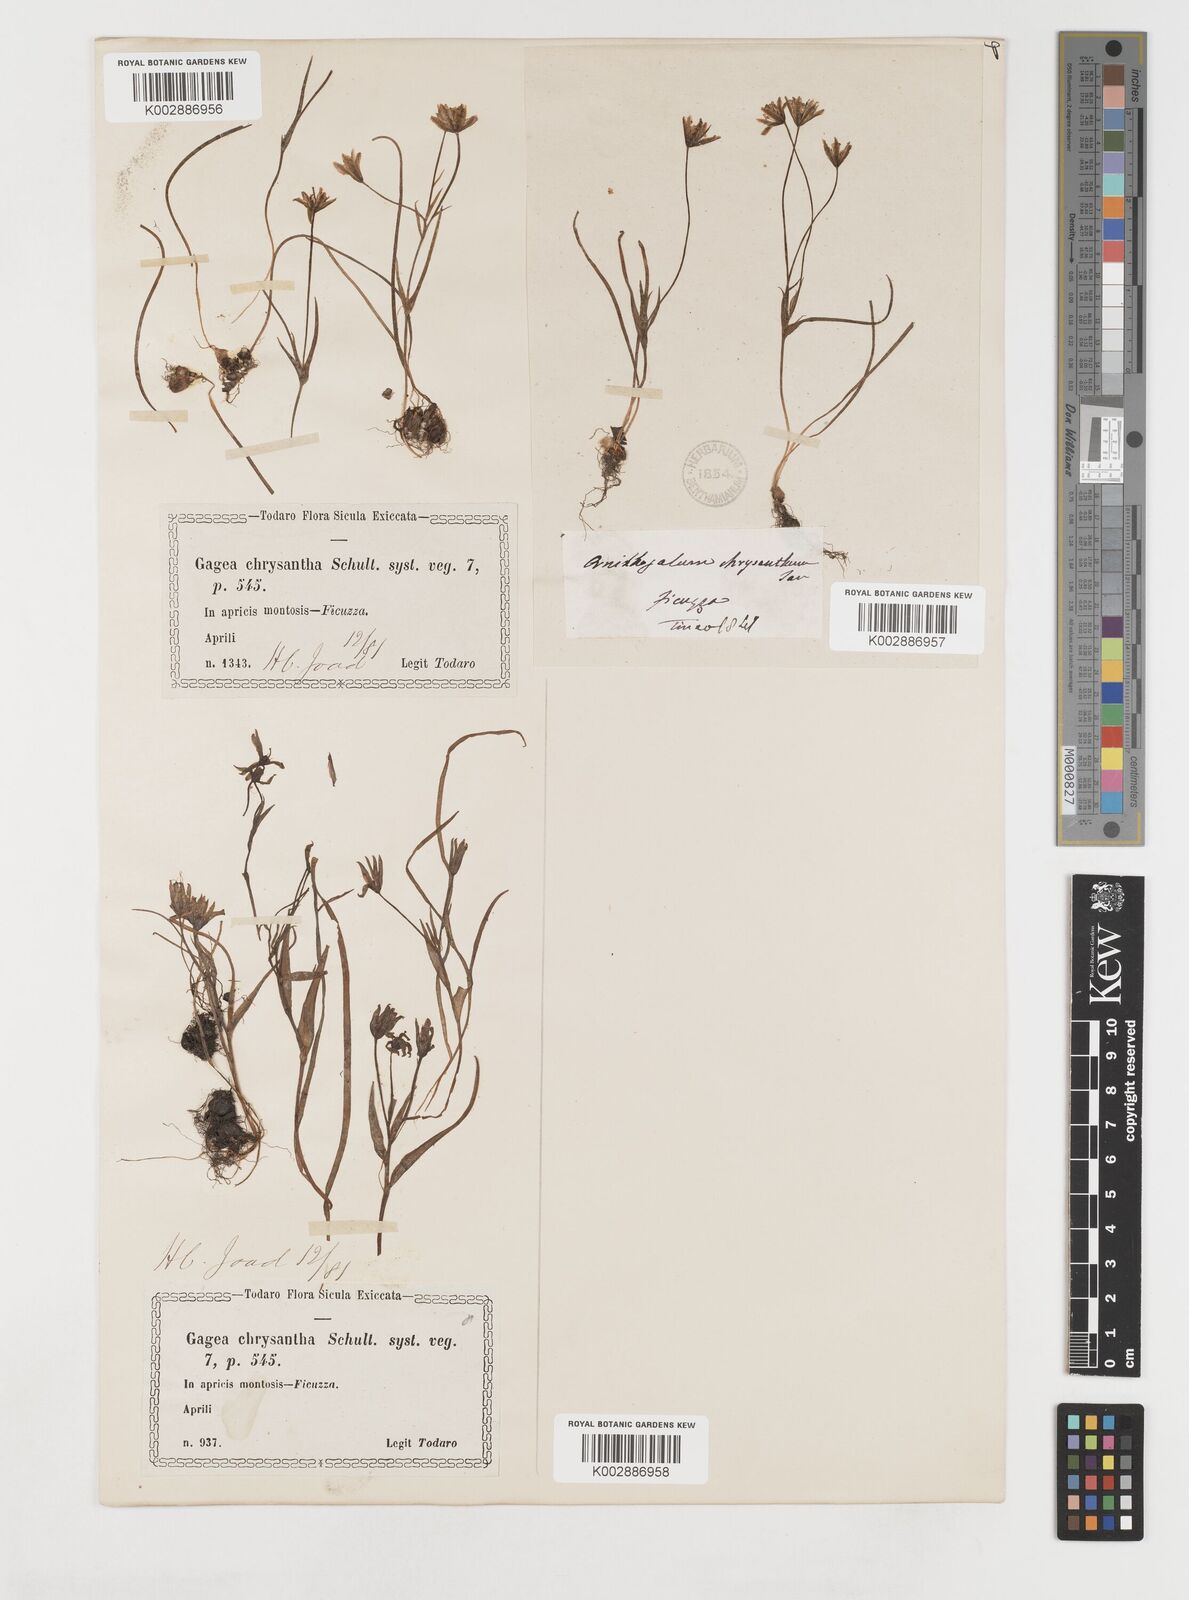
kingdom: Plantae
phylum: Tracheophyta
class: Liliopsida
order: Liliales
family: Liliaceae
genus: Gagea
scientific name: Gagea chrysantha
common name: Golden gagea
